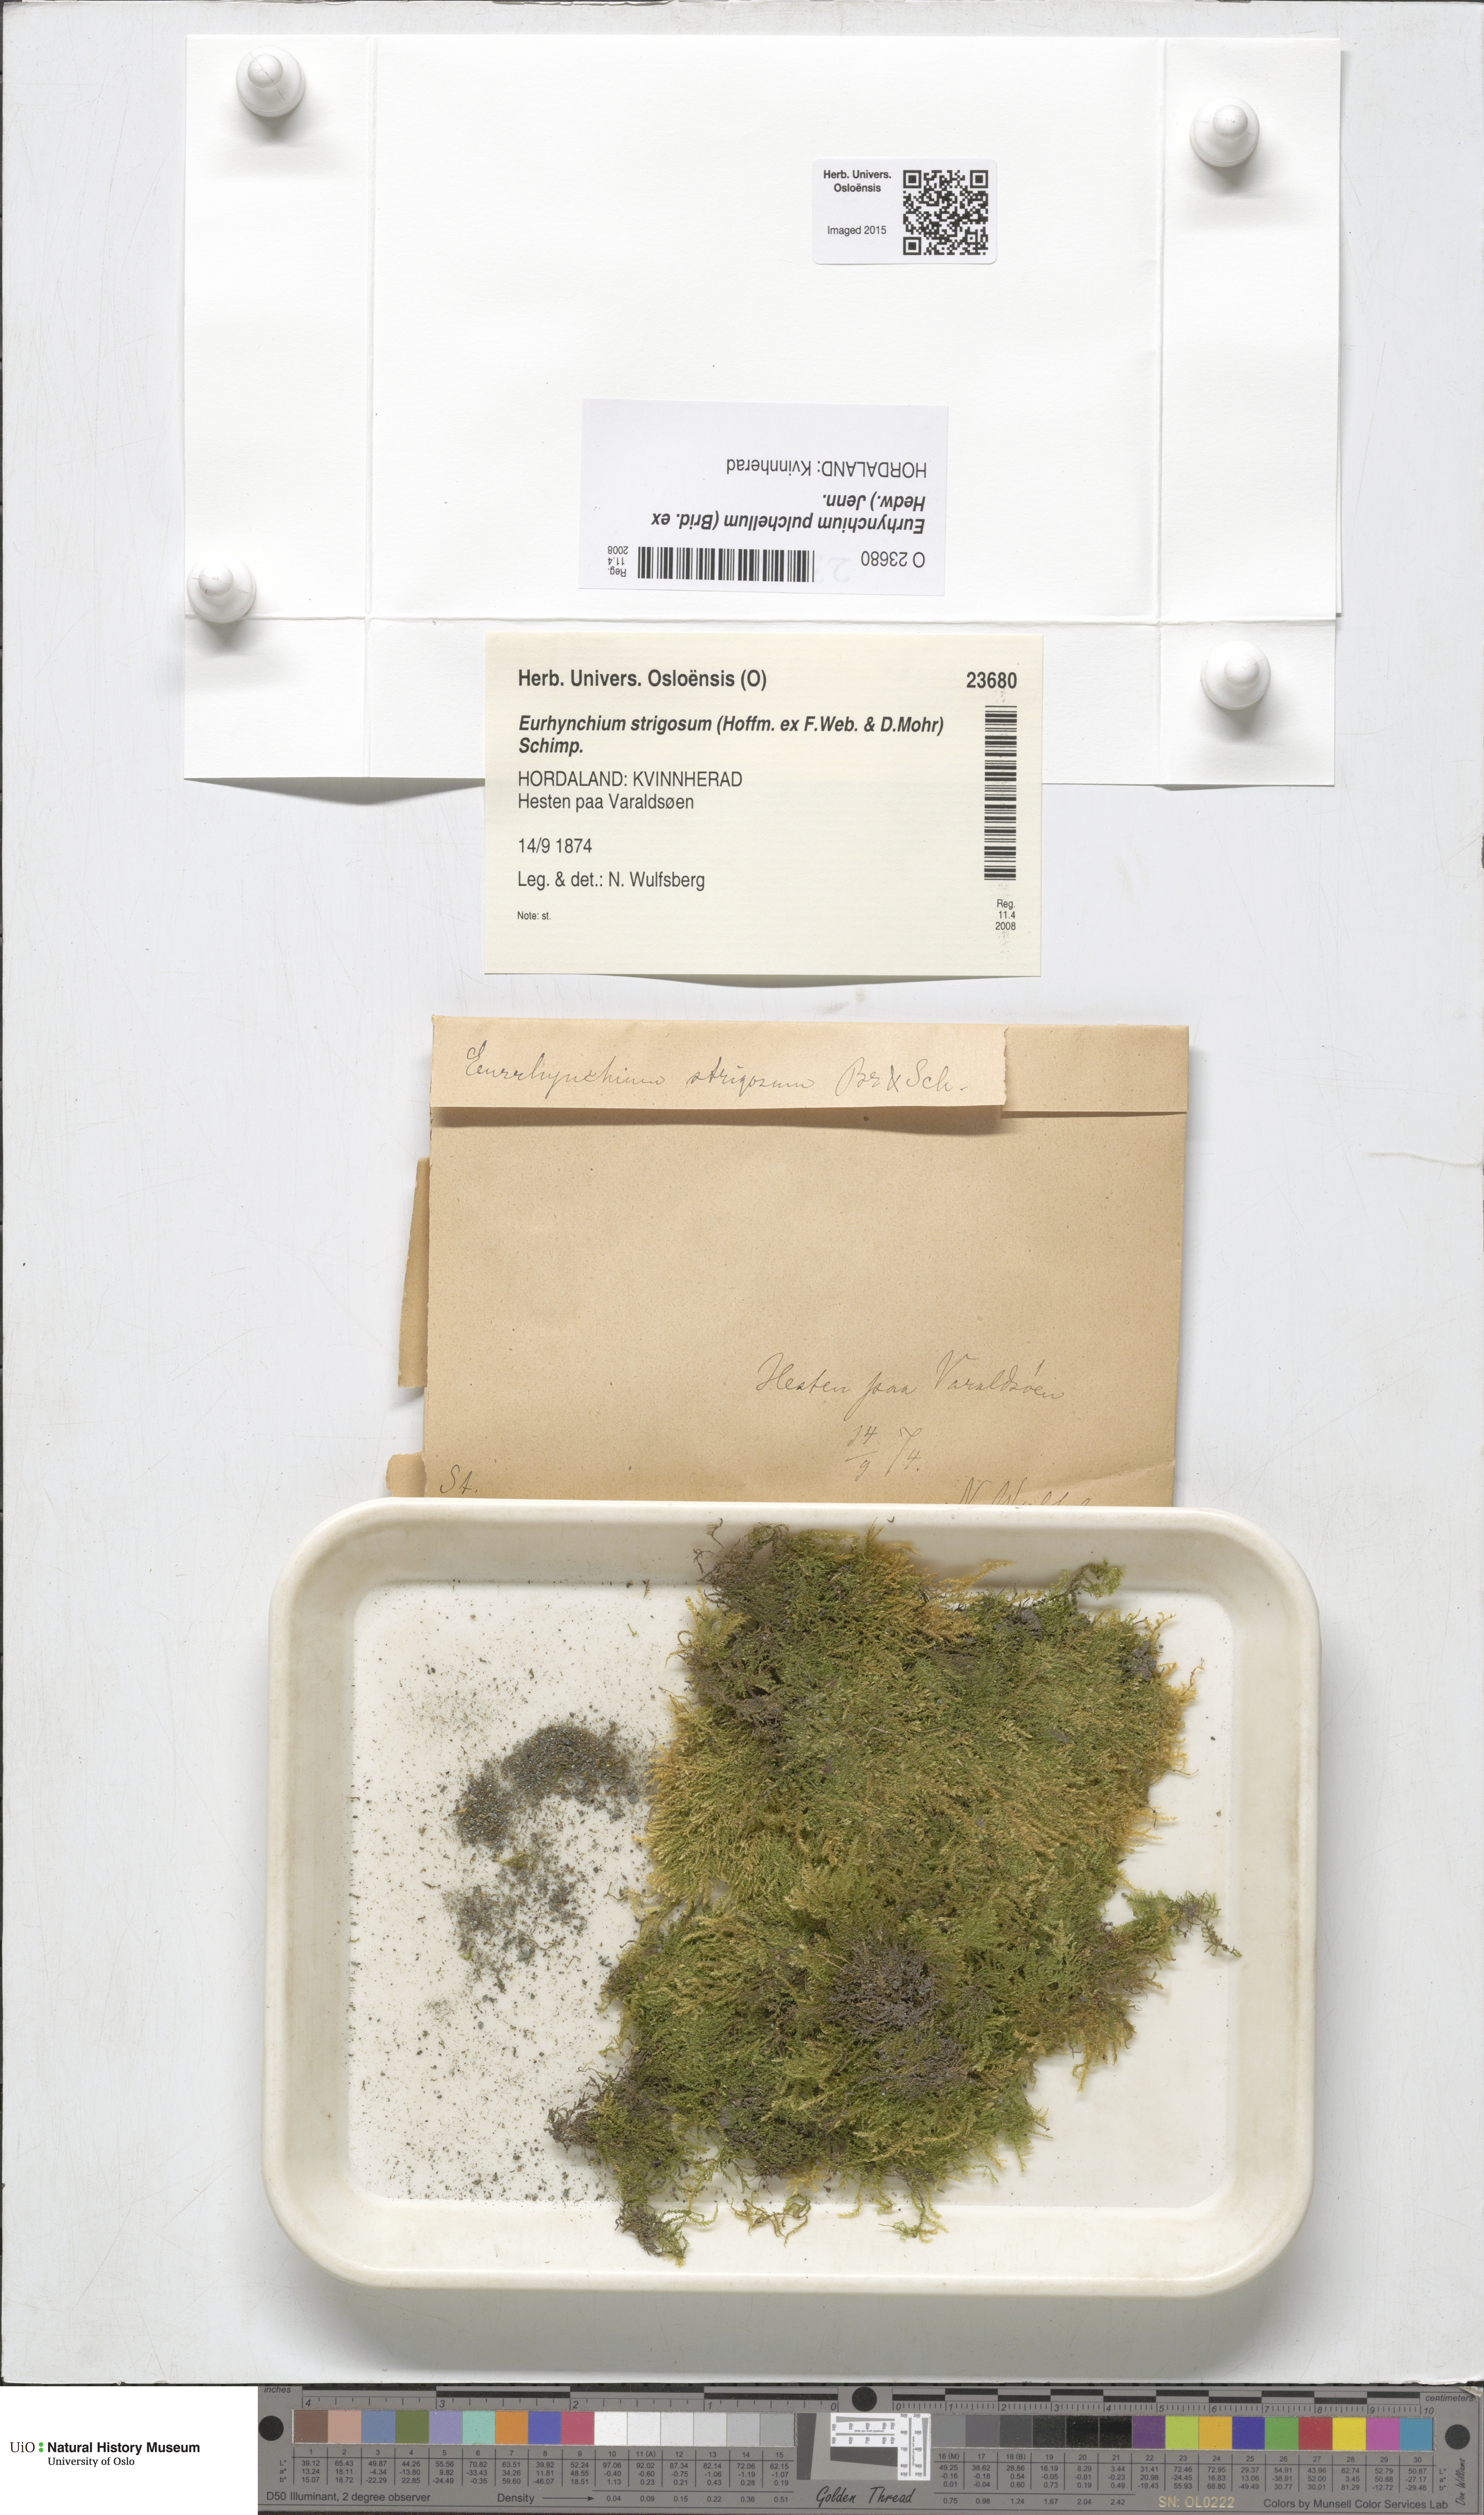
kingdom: Plantae
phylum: Bryophyta
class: Bryopsida
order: Hypnales
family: Brachytheciaceae
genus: Eurhynchiastrum
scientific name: Eurhynchiastrum pulchellum
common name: Elegant beaked moss
